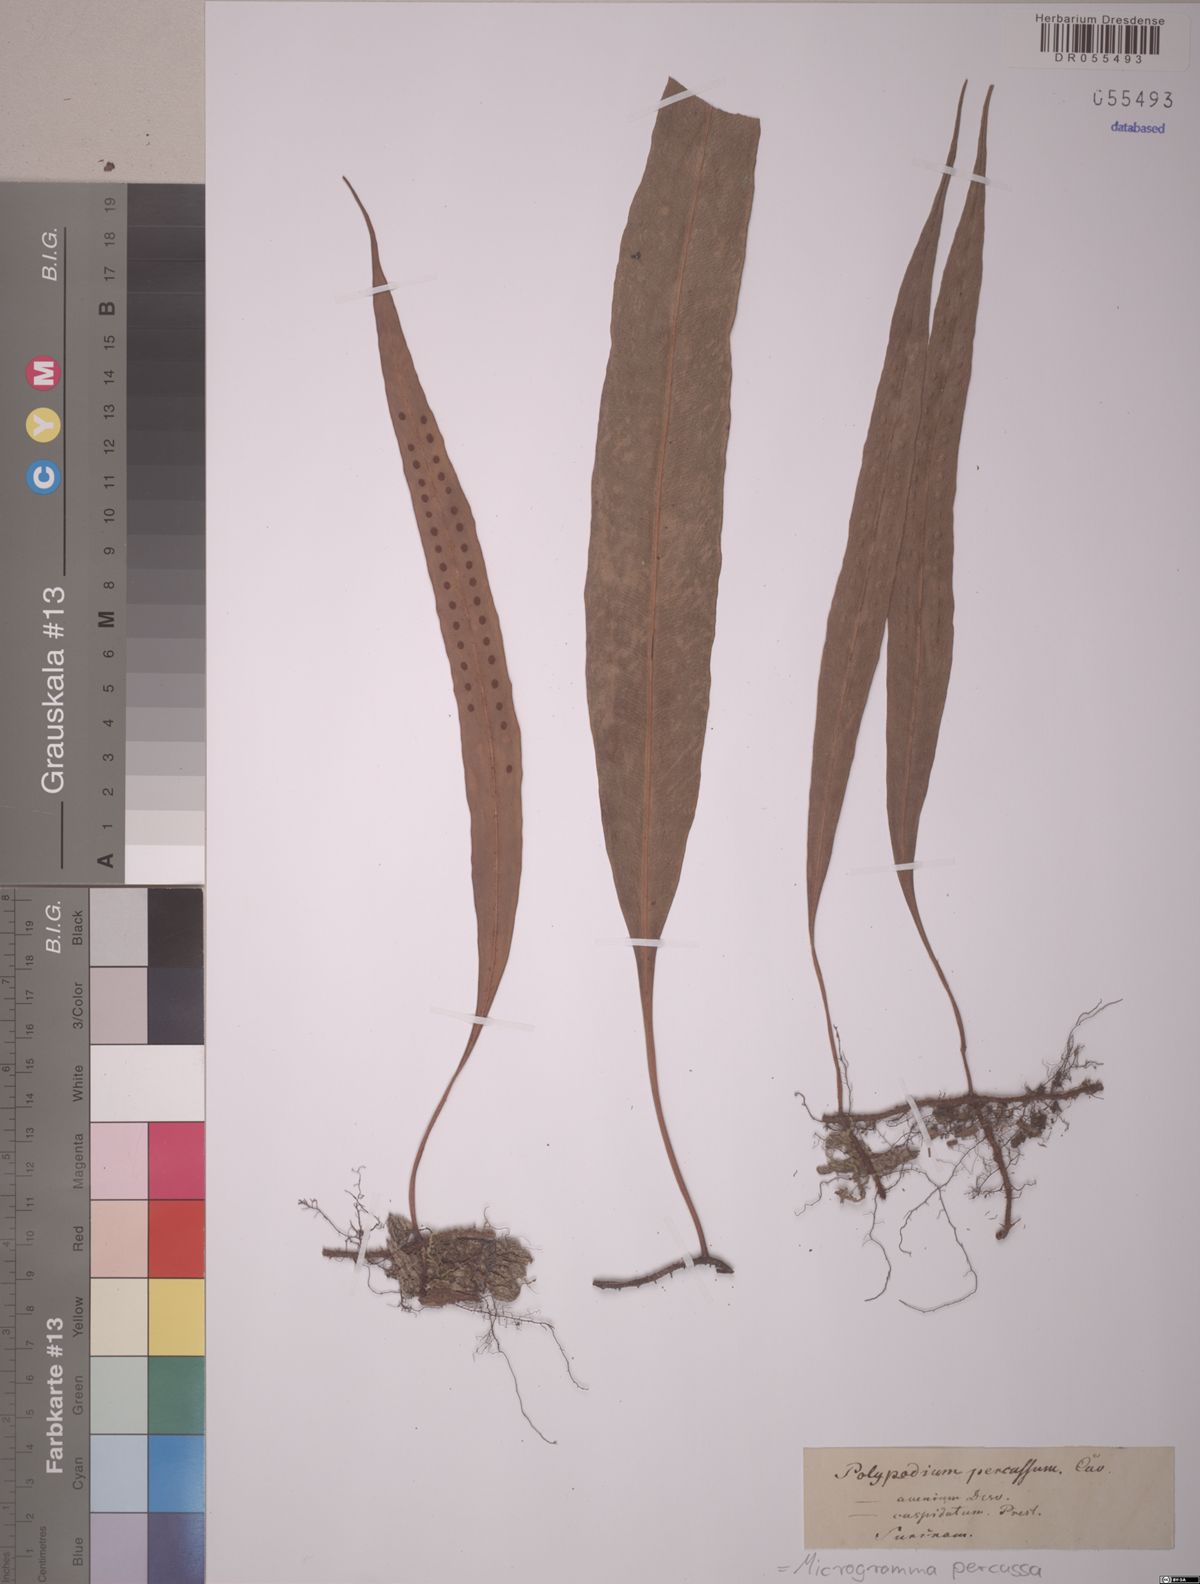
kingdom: Plantae
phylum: Tracheophyta
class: Polypodiopsida
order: Polypodiales
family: Polypodiaceae
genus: Microgramma
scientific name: Microgramma percussa
